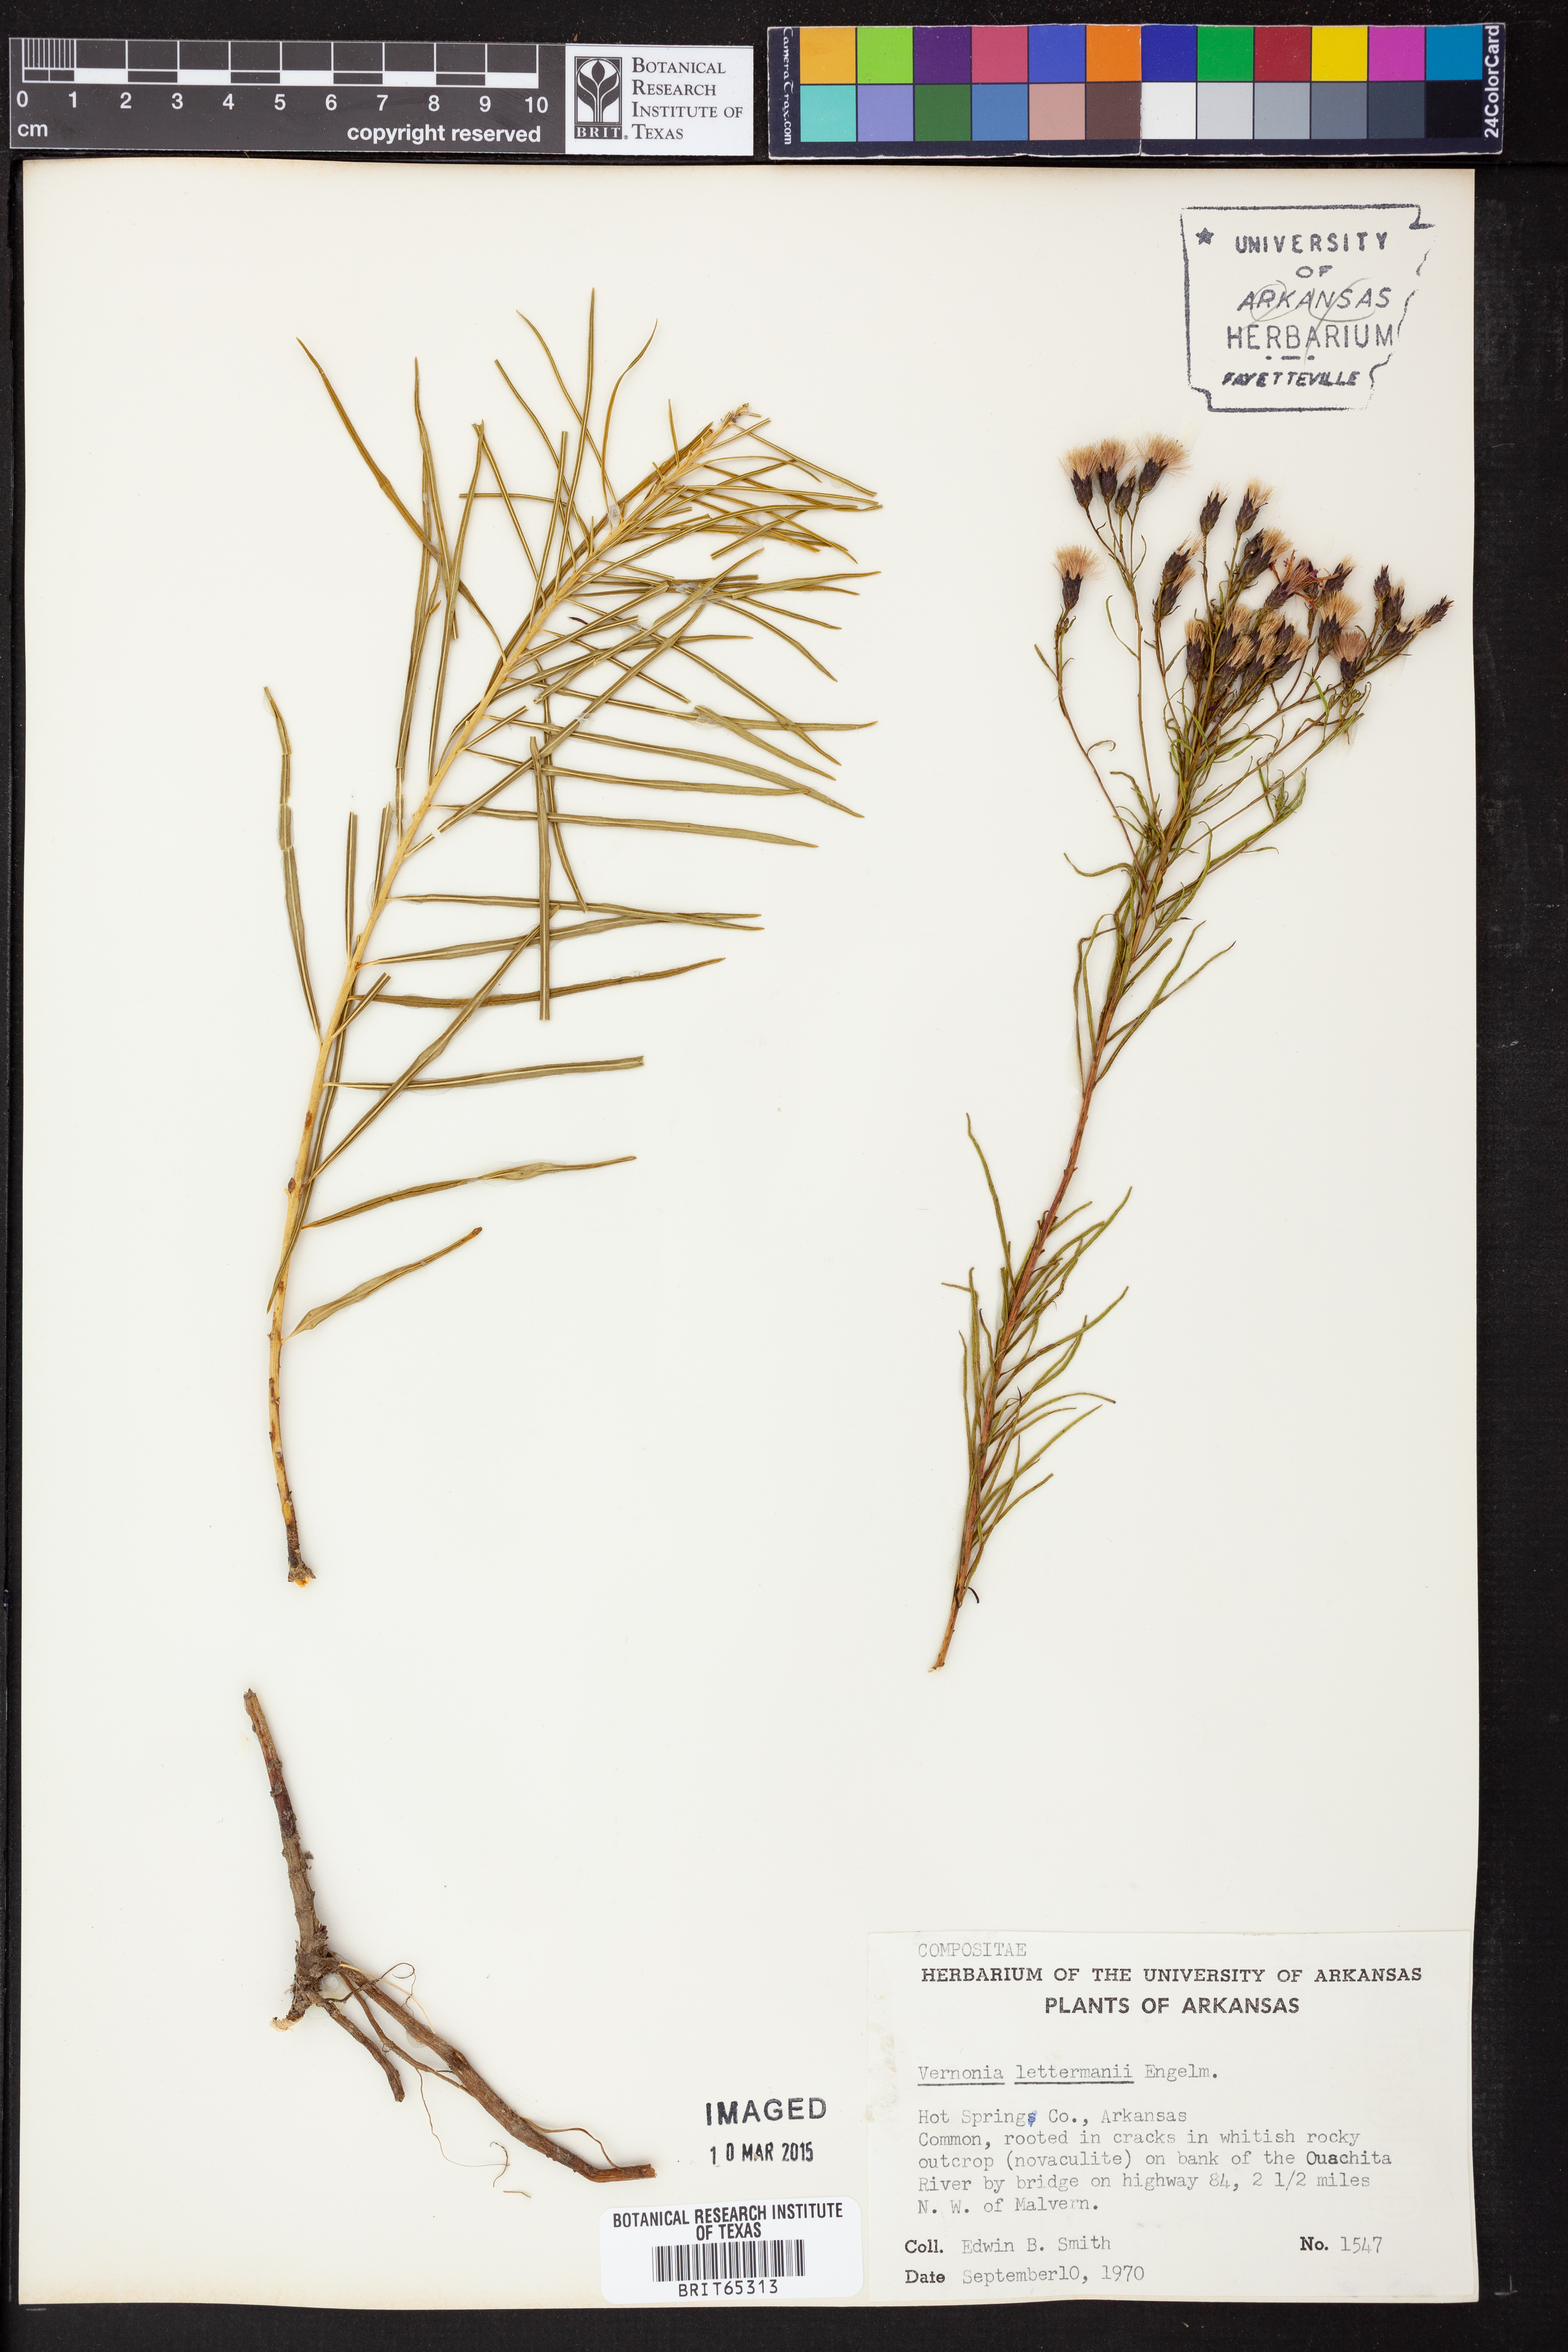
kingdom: Plantae
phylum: Tracheophyta
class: Magnoliopsida
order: Asterales
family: Asteraceae
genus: Vernonia
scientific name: Vernonia lettermannii
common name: Lettermann's ironweed
